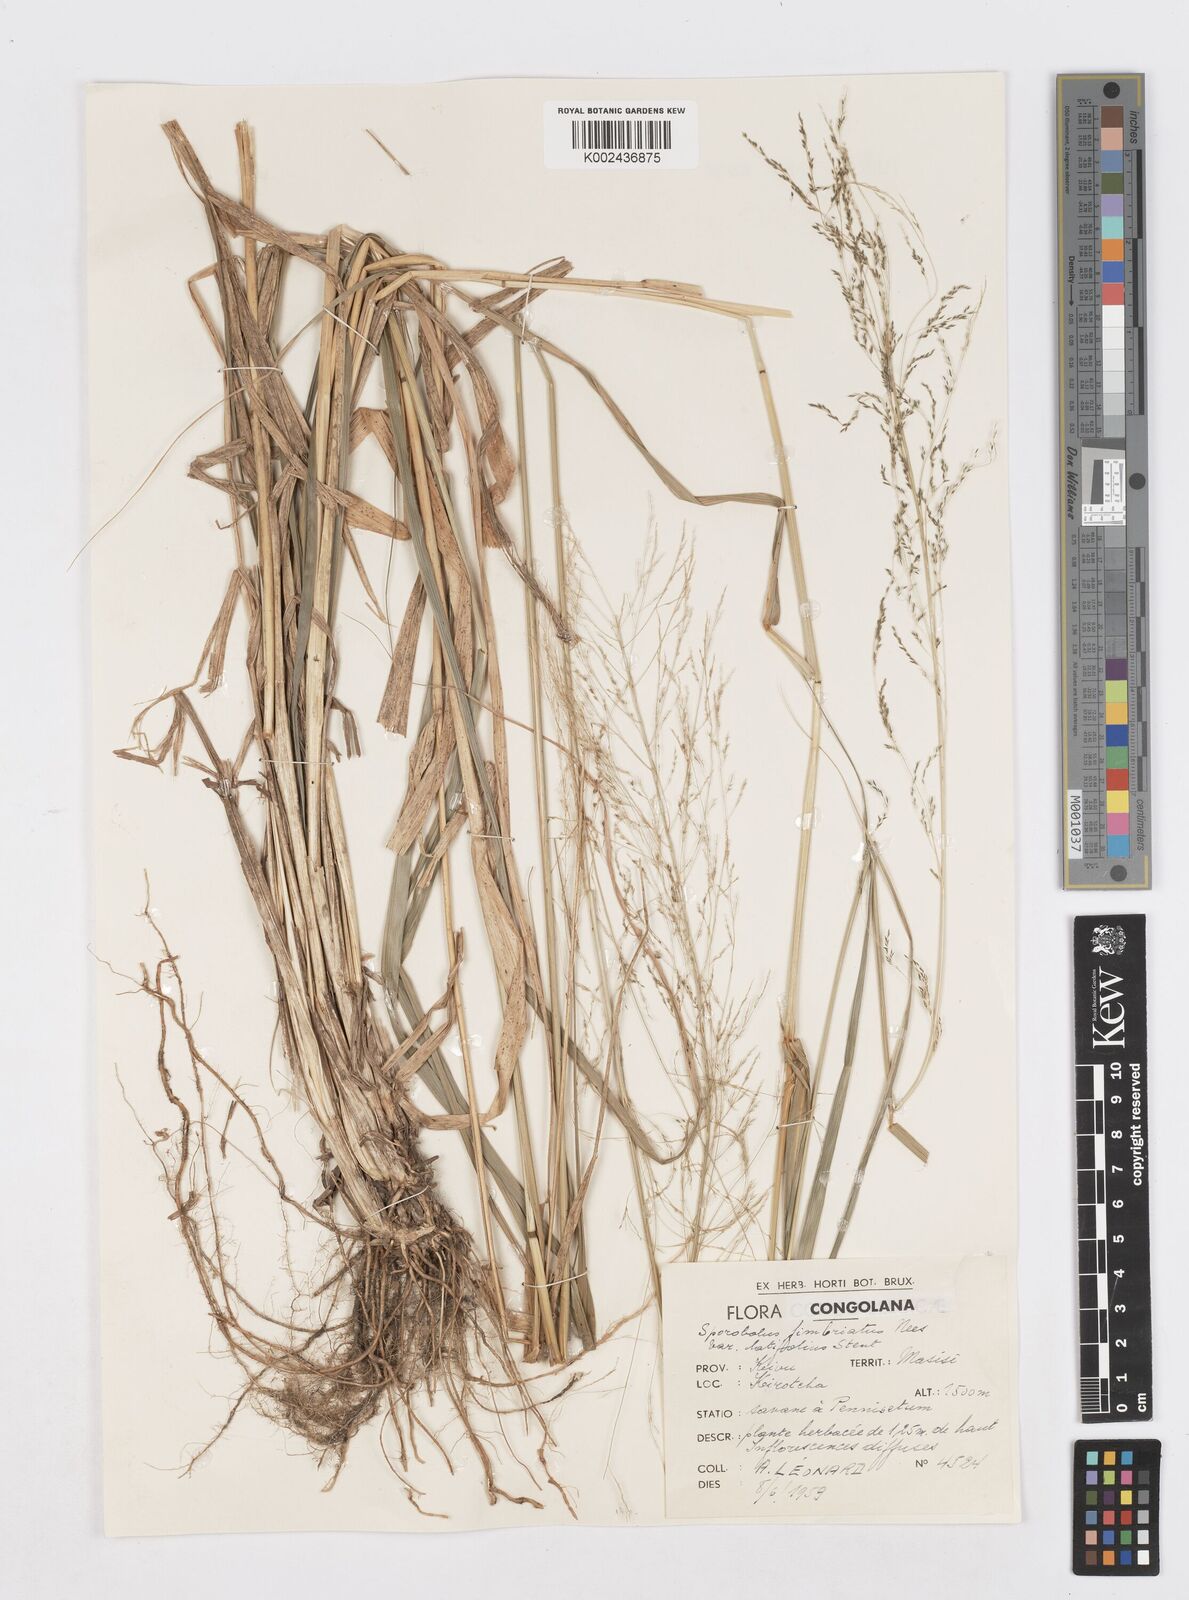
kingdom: Plantae
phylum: Tracheophyta
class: Liliopsida
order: Poales
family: Poaceae
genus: Sporobolus
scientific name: Sporobolus agrostoides
